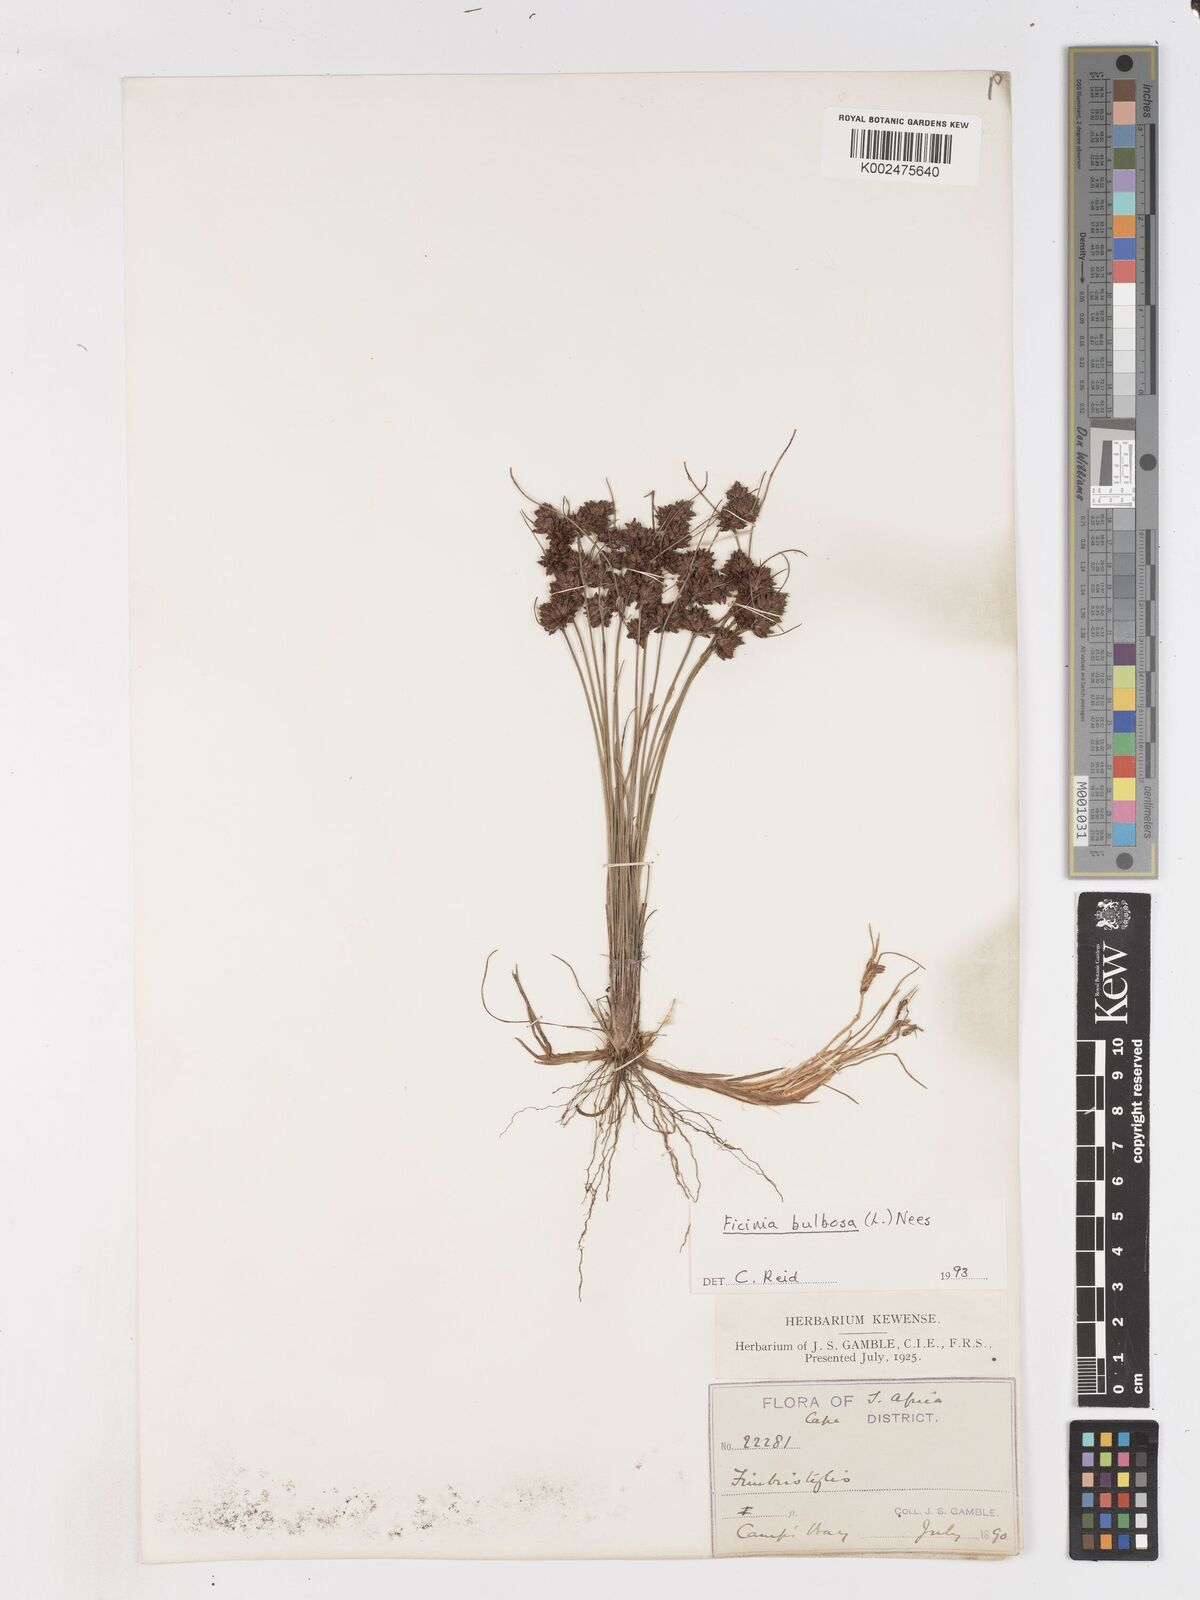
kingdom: Plantae
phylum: Tracheophyta
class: Liliopsida
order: Poales
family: Cyperaceae
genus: Ficinia
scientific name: Ficinia bulbosa
